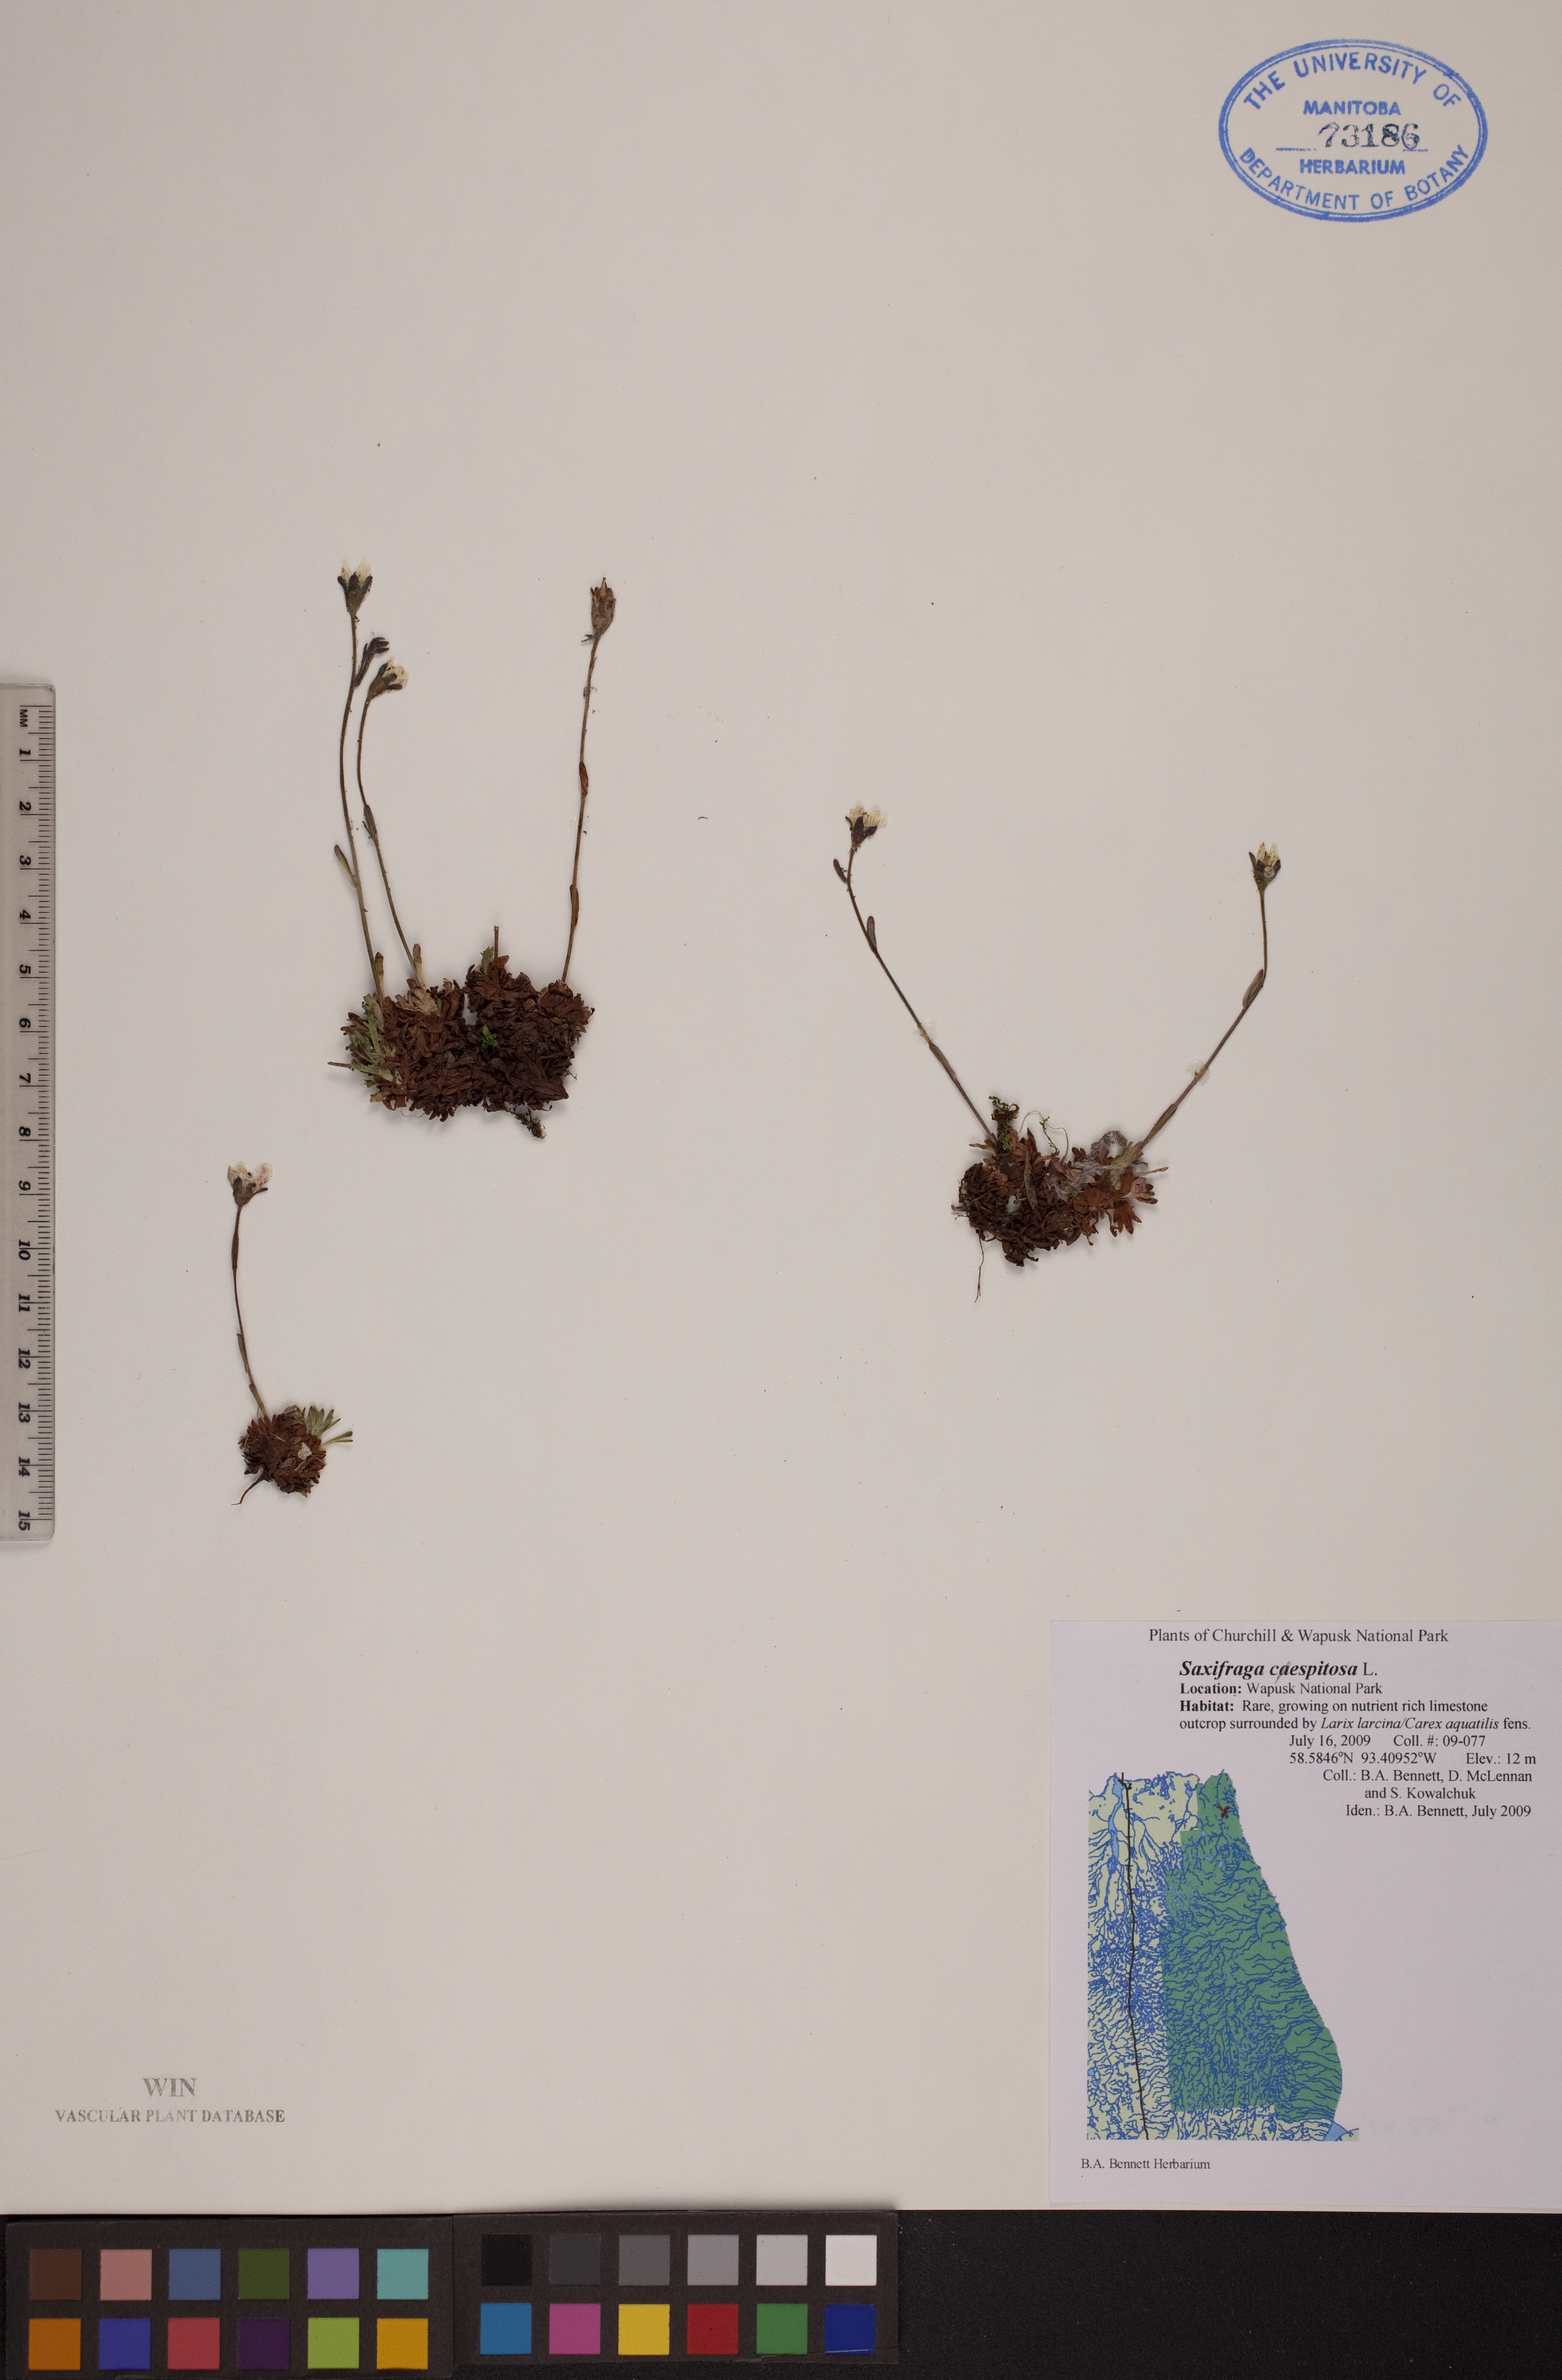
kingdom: Plantae
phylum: Tracheophyta
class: Magnoliopsida
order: Saxifragales
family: Saxifragaceae
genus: Saxifraga
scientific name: Saxifraga cespitosa
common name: Tufted saxifrage
